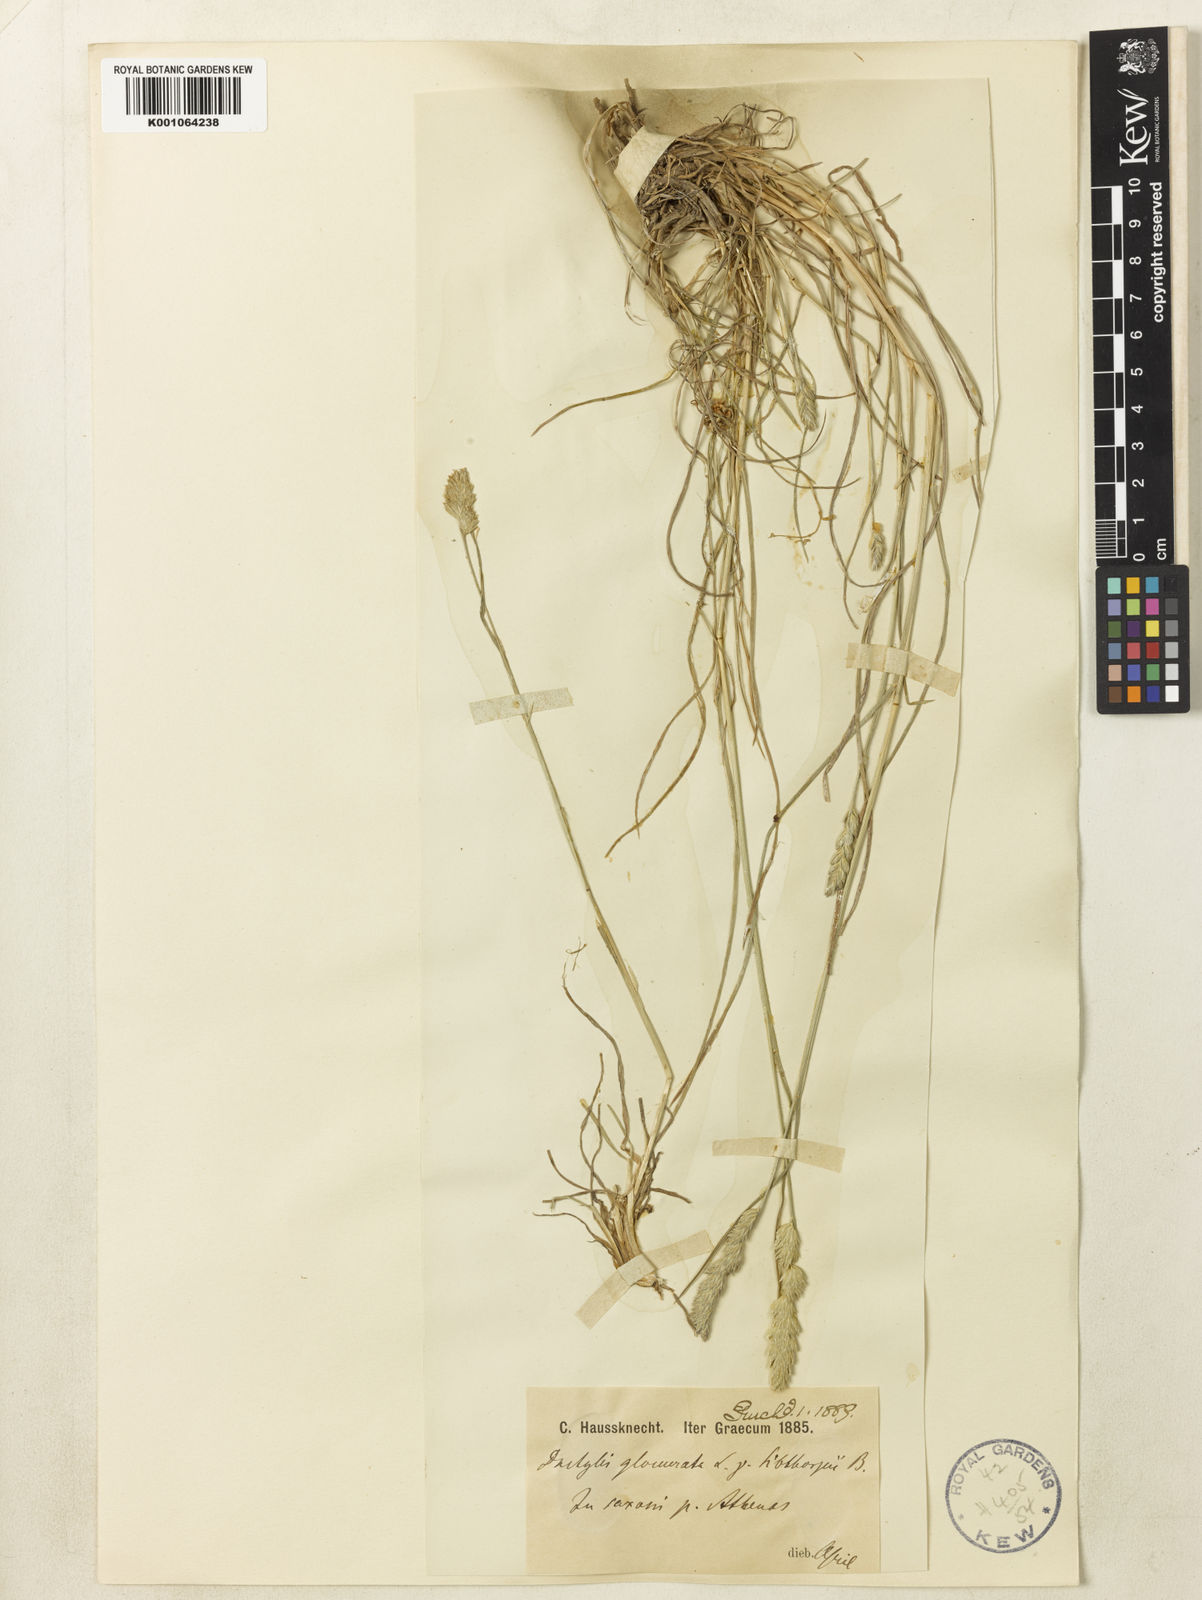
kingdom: Plantae
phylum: Tracheophyta
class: Liliopsida
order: Poales
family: Poaceae
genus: Dactylis
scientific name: Dactylis glomerata
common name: Orchardgrass
